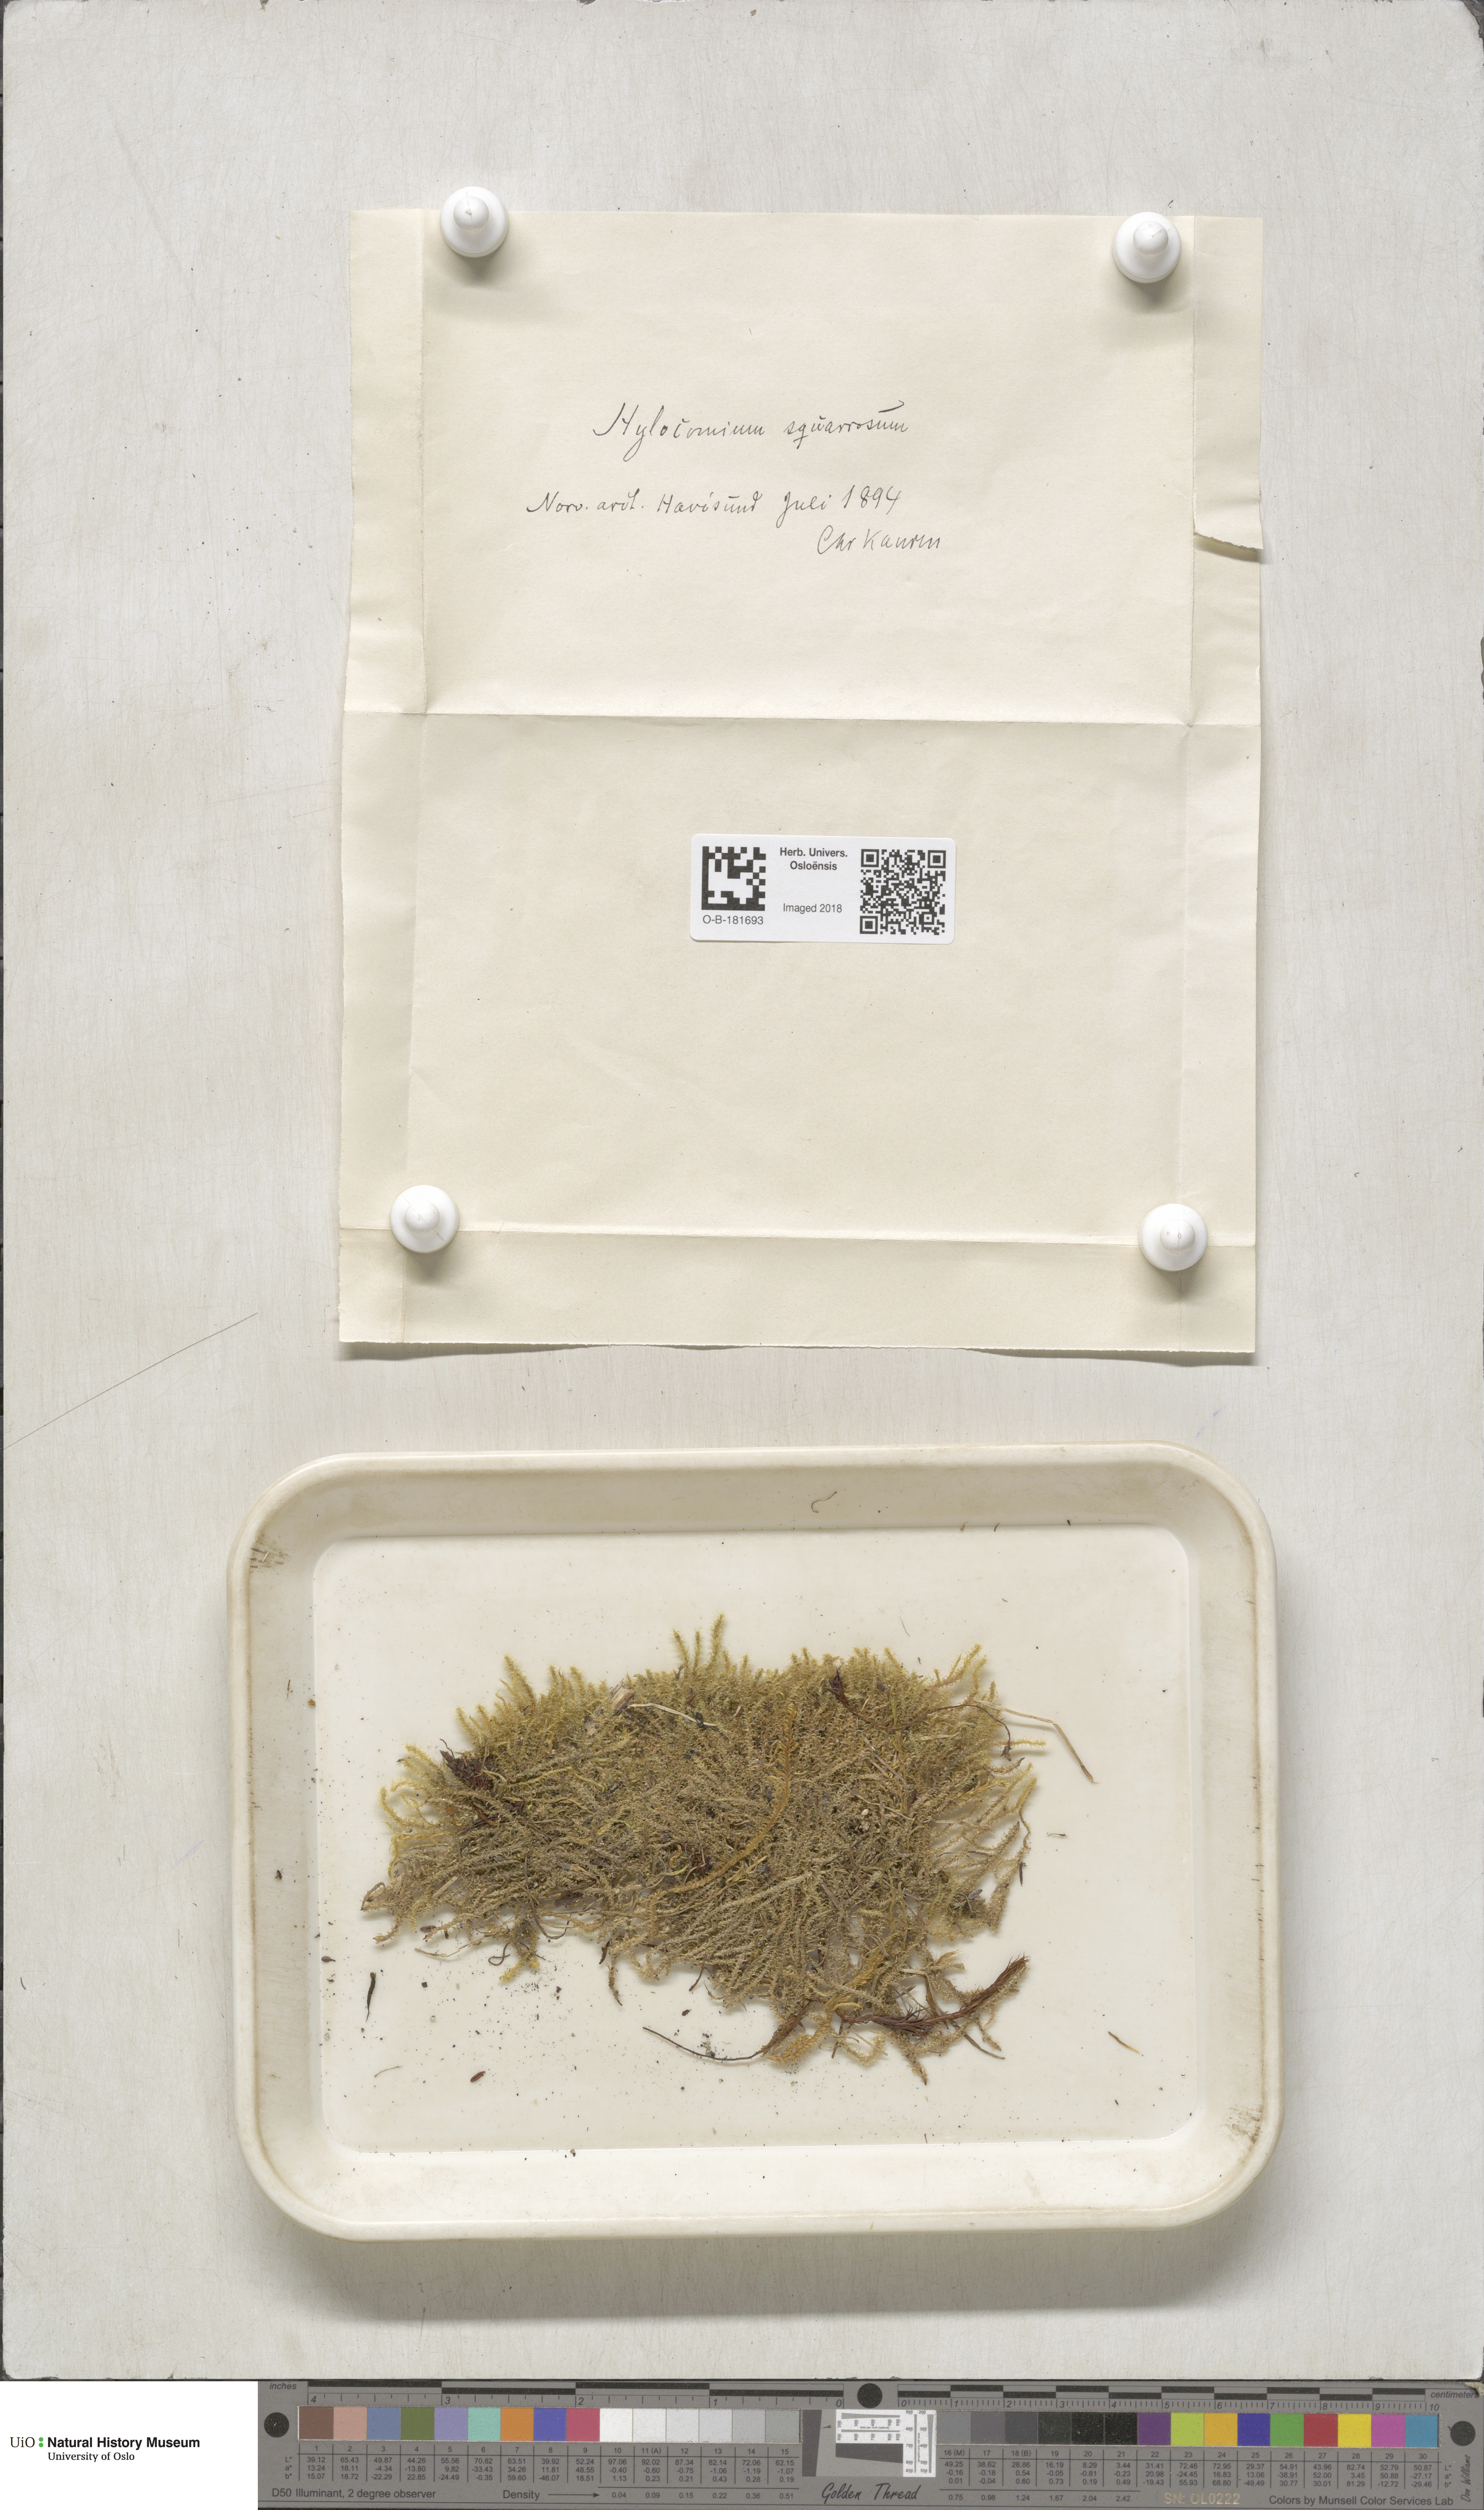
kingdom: Plantae
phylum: Bryophyta
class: Bryopsida
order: Hypnales
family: Hylocomiaceae
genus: Rhytidiadelphus
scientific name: Rhytidiadelphus squarrosus
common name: Springy turf-moss
